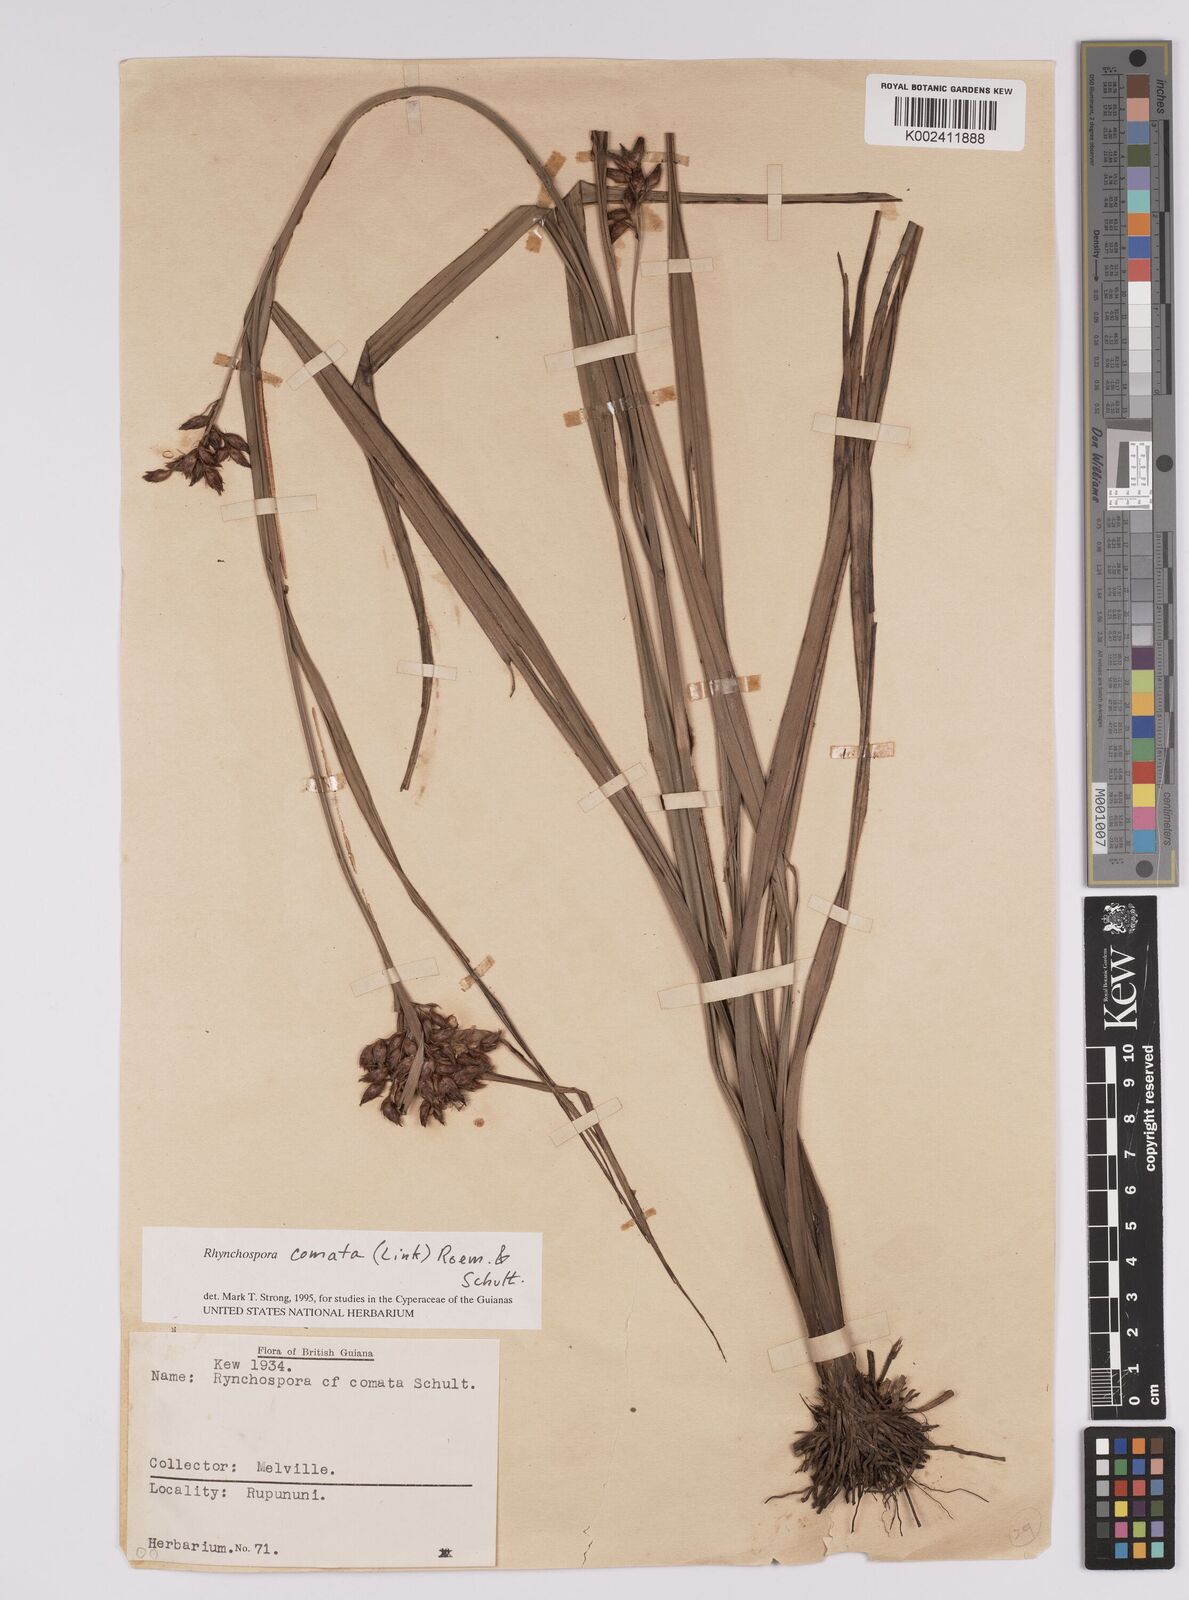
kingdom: Plantae
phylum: Tracheophyta
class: Liliopsida
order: Poales
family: Cyperaceae
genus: Rhynchospora
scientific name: Rhynchospora comata
